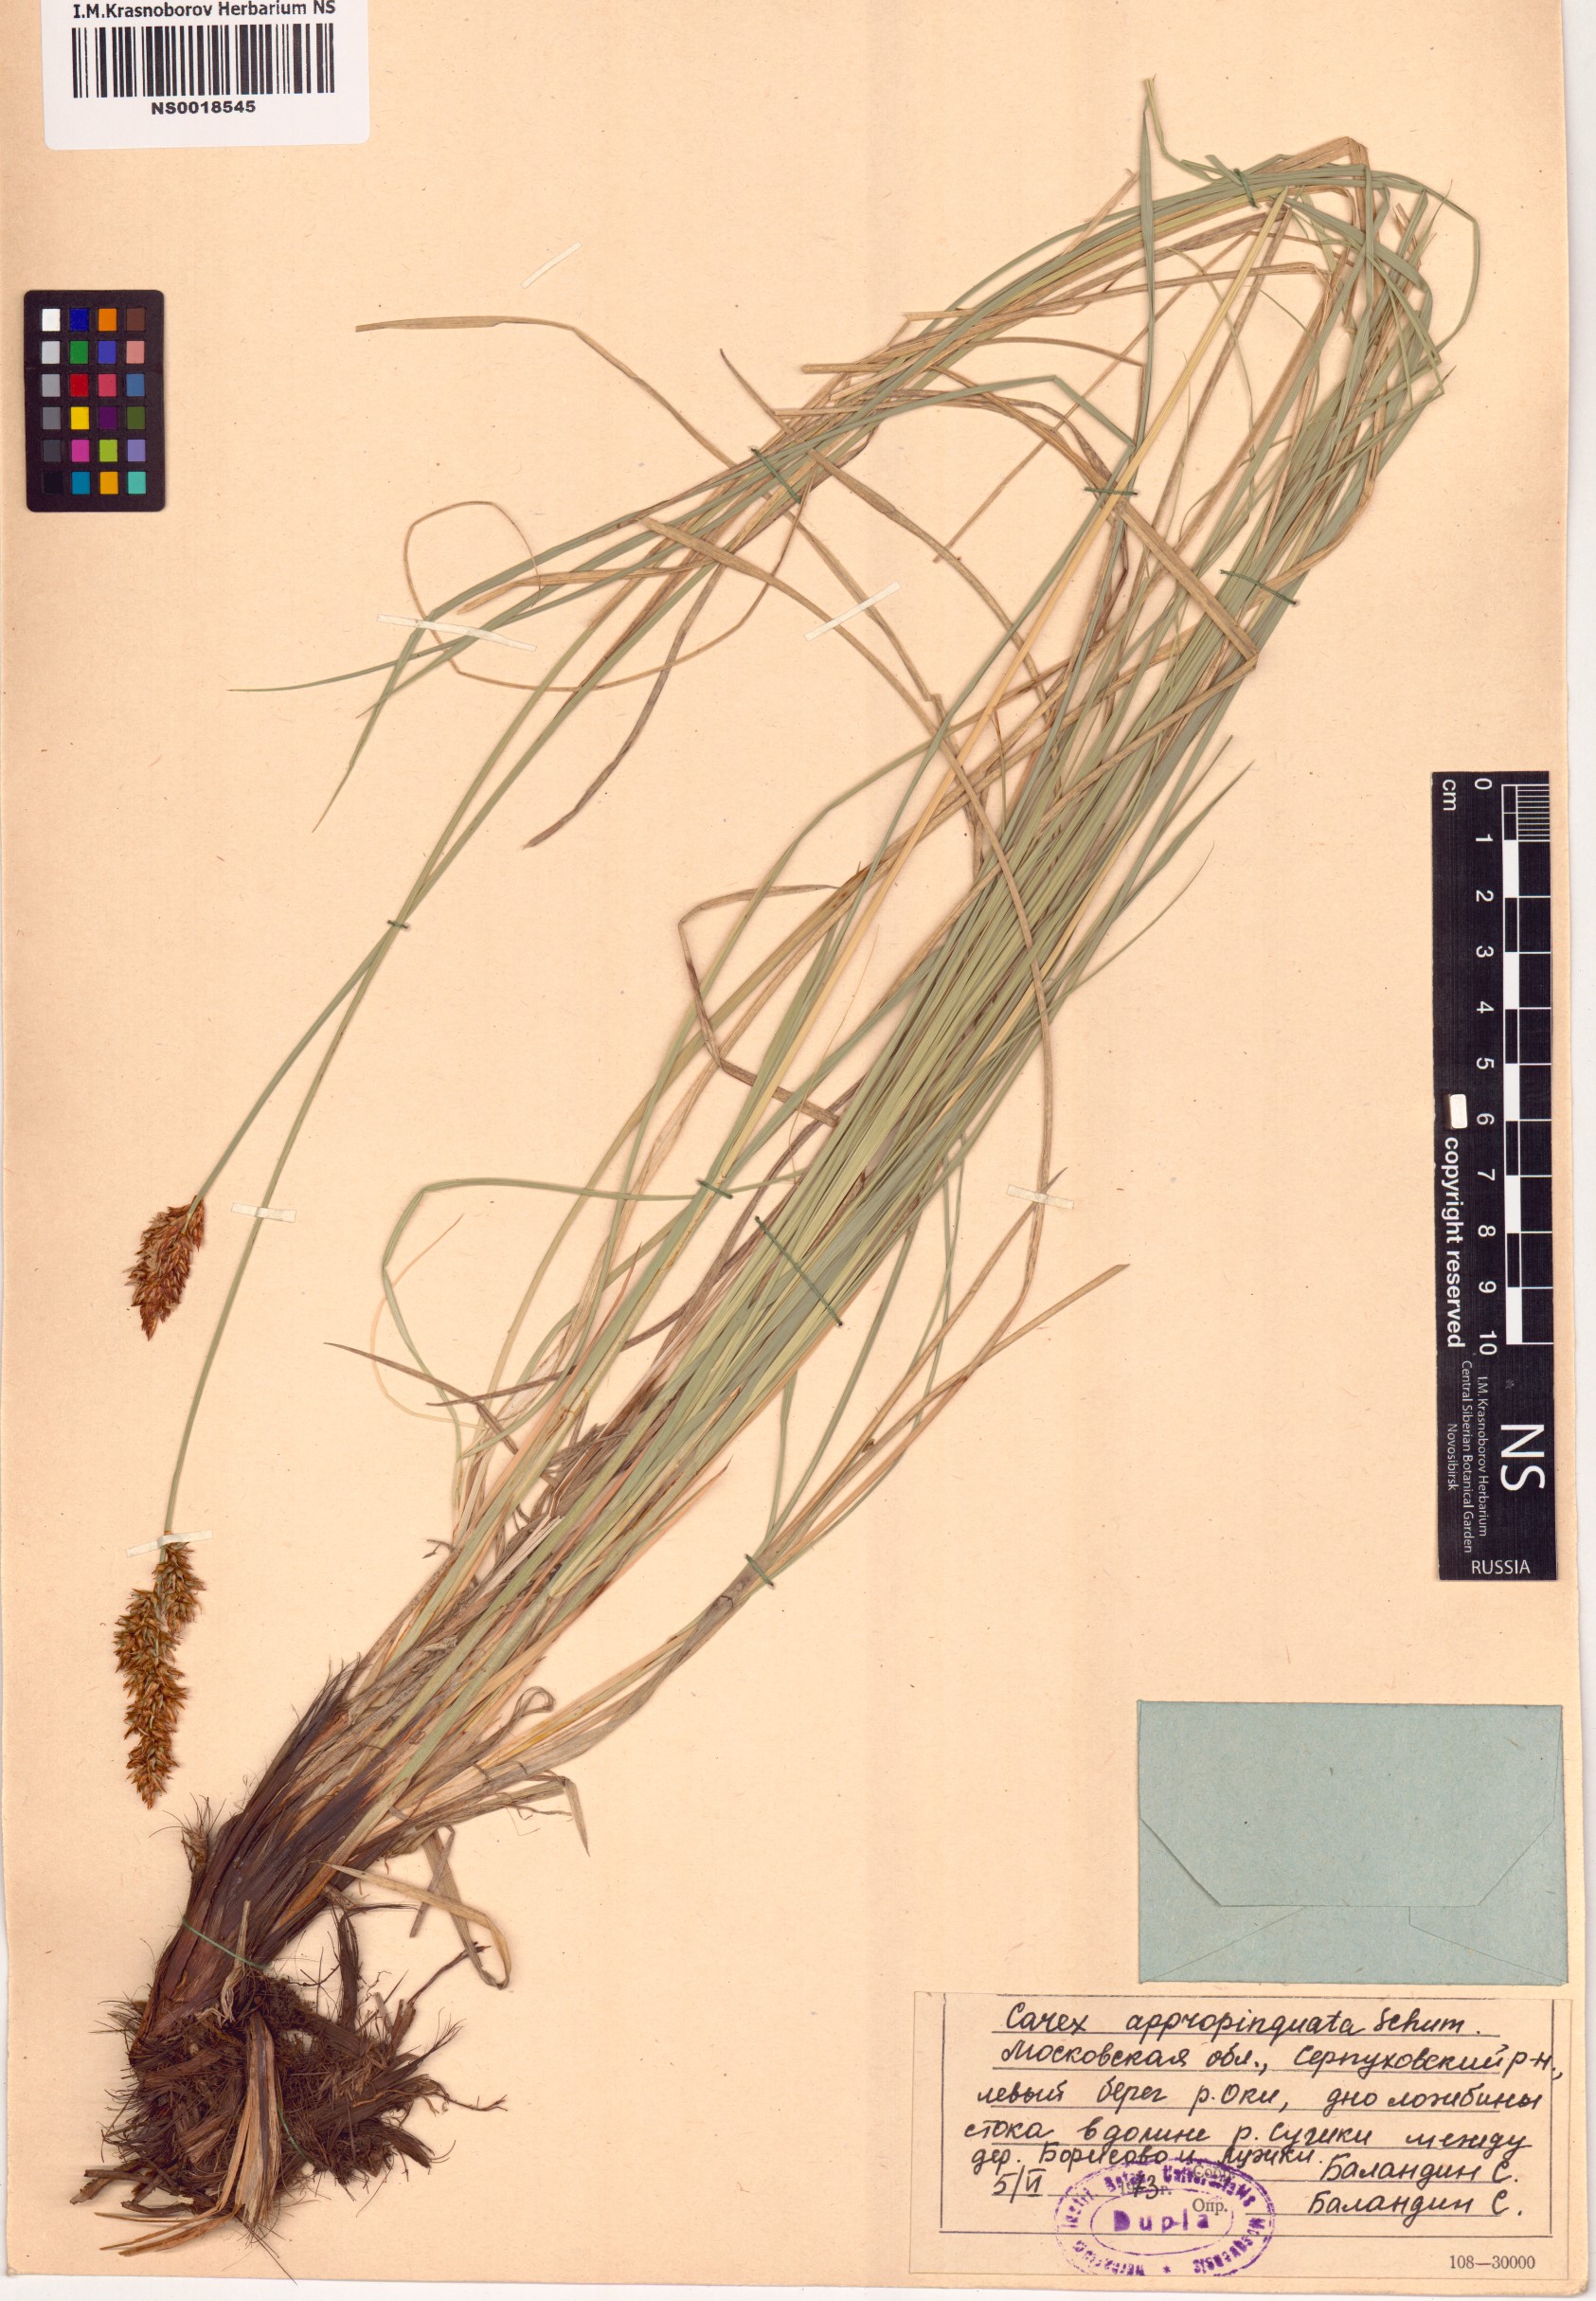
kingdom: Plantae
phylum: Tracheophyta
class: Liliopsida
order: Poales
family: Cyperaceae
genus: Carex
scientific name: Carex appropinquata
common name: Fibrous tussock-sedge
